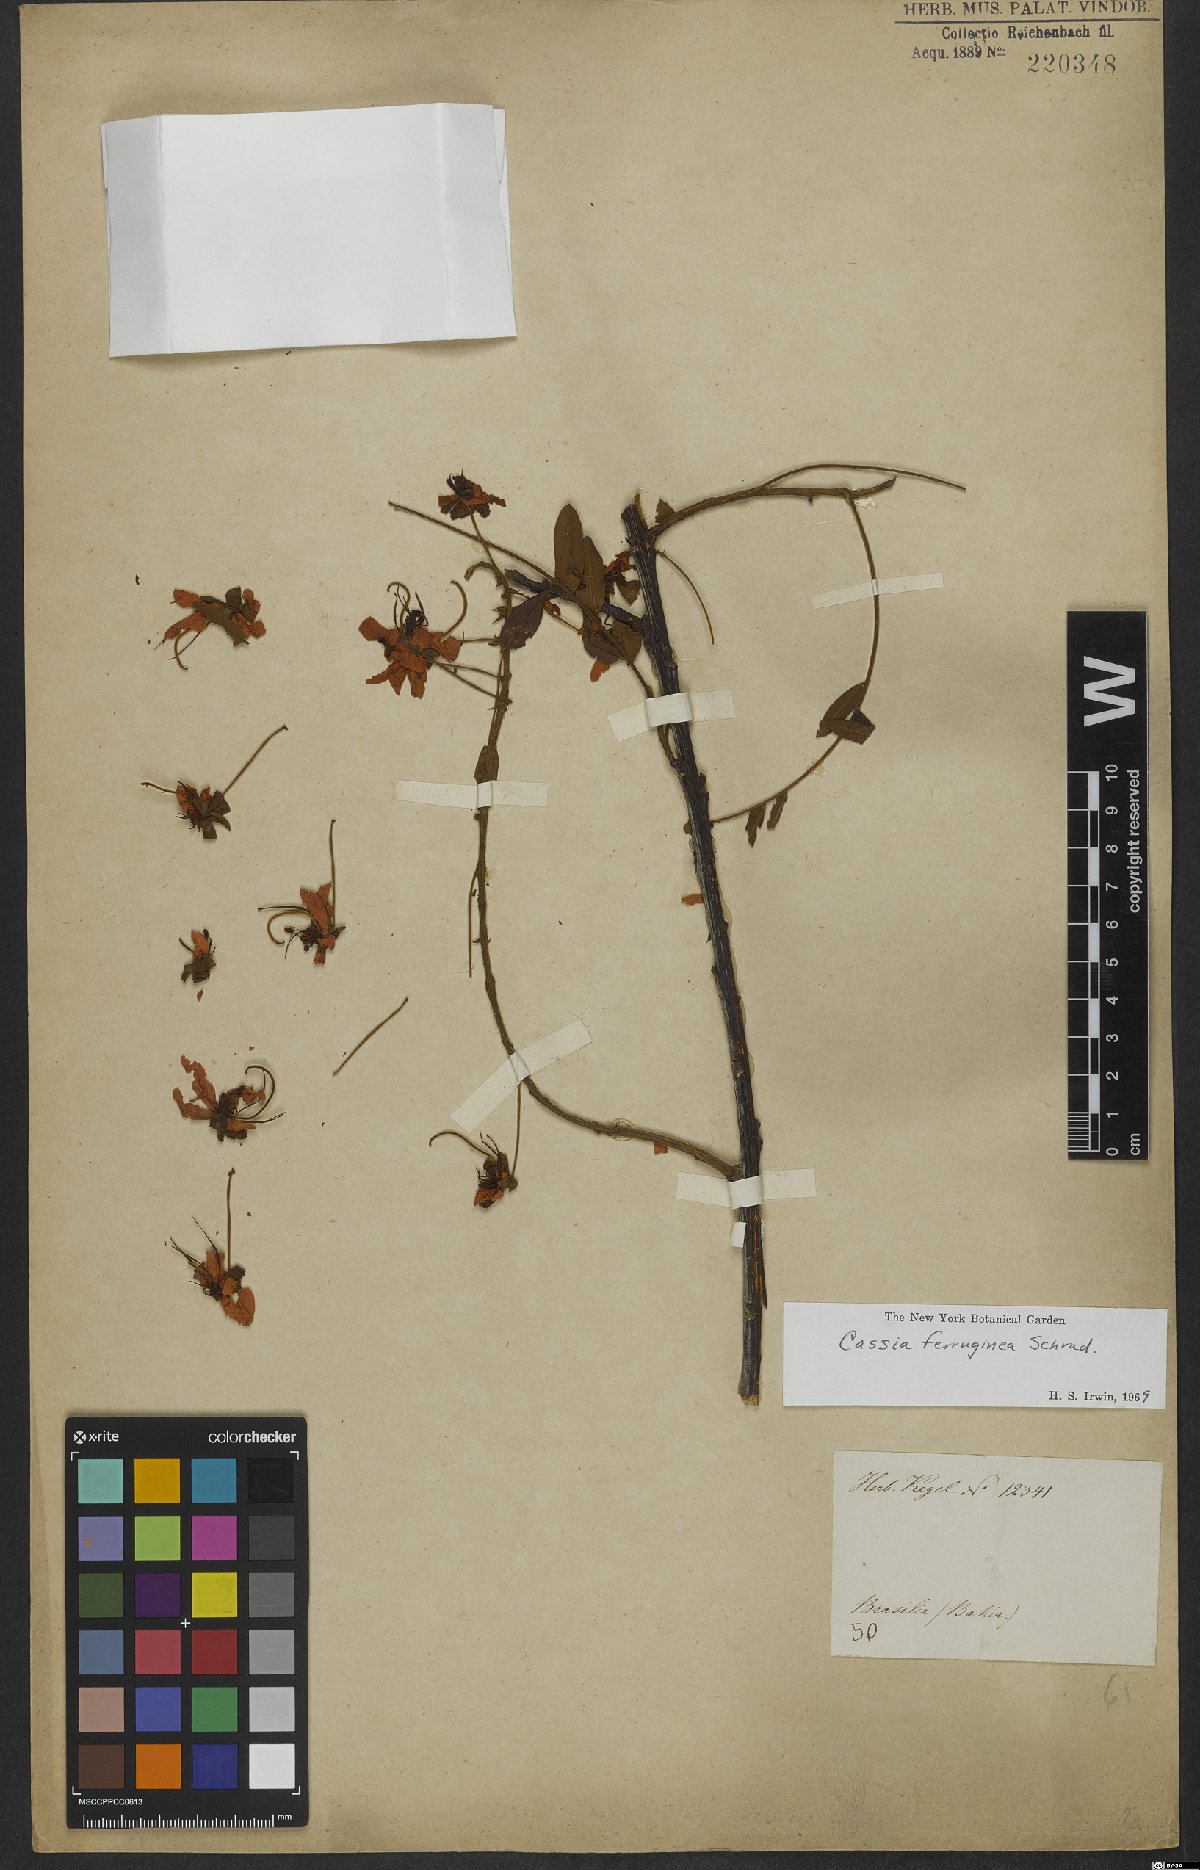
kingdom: Plantae
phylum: Tracheophyta
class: Magnoliopsida
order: Fabales
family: Fabaceae
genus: Cassia
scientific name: Cassia ferruginea
